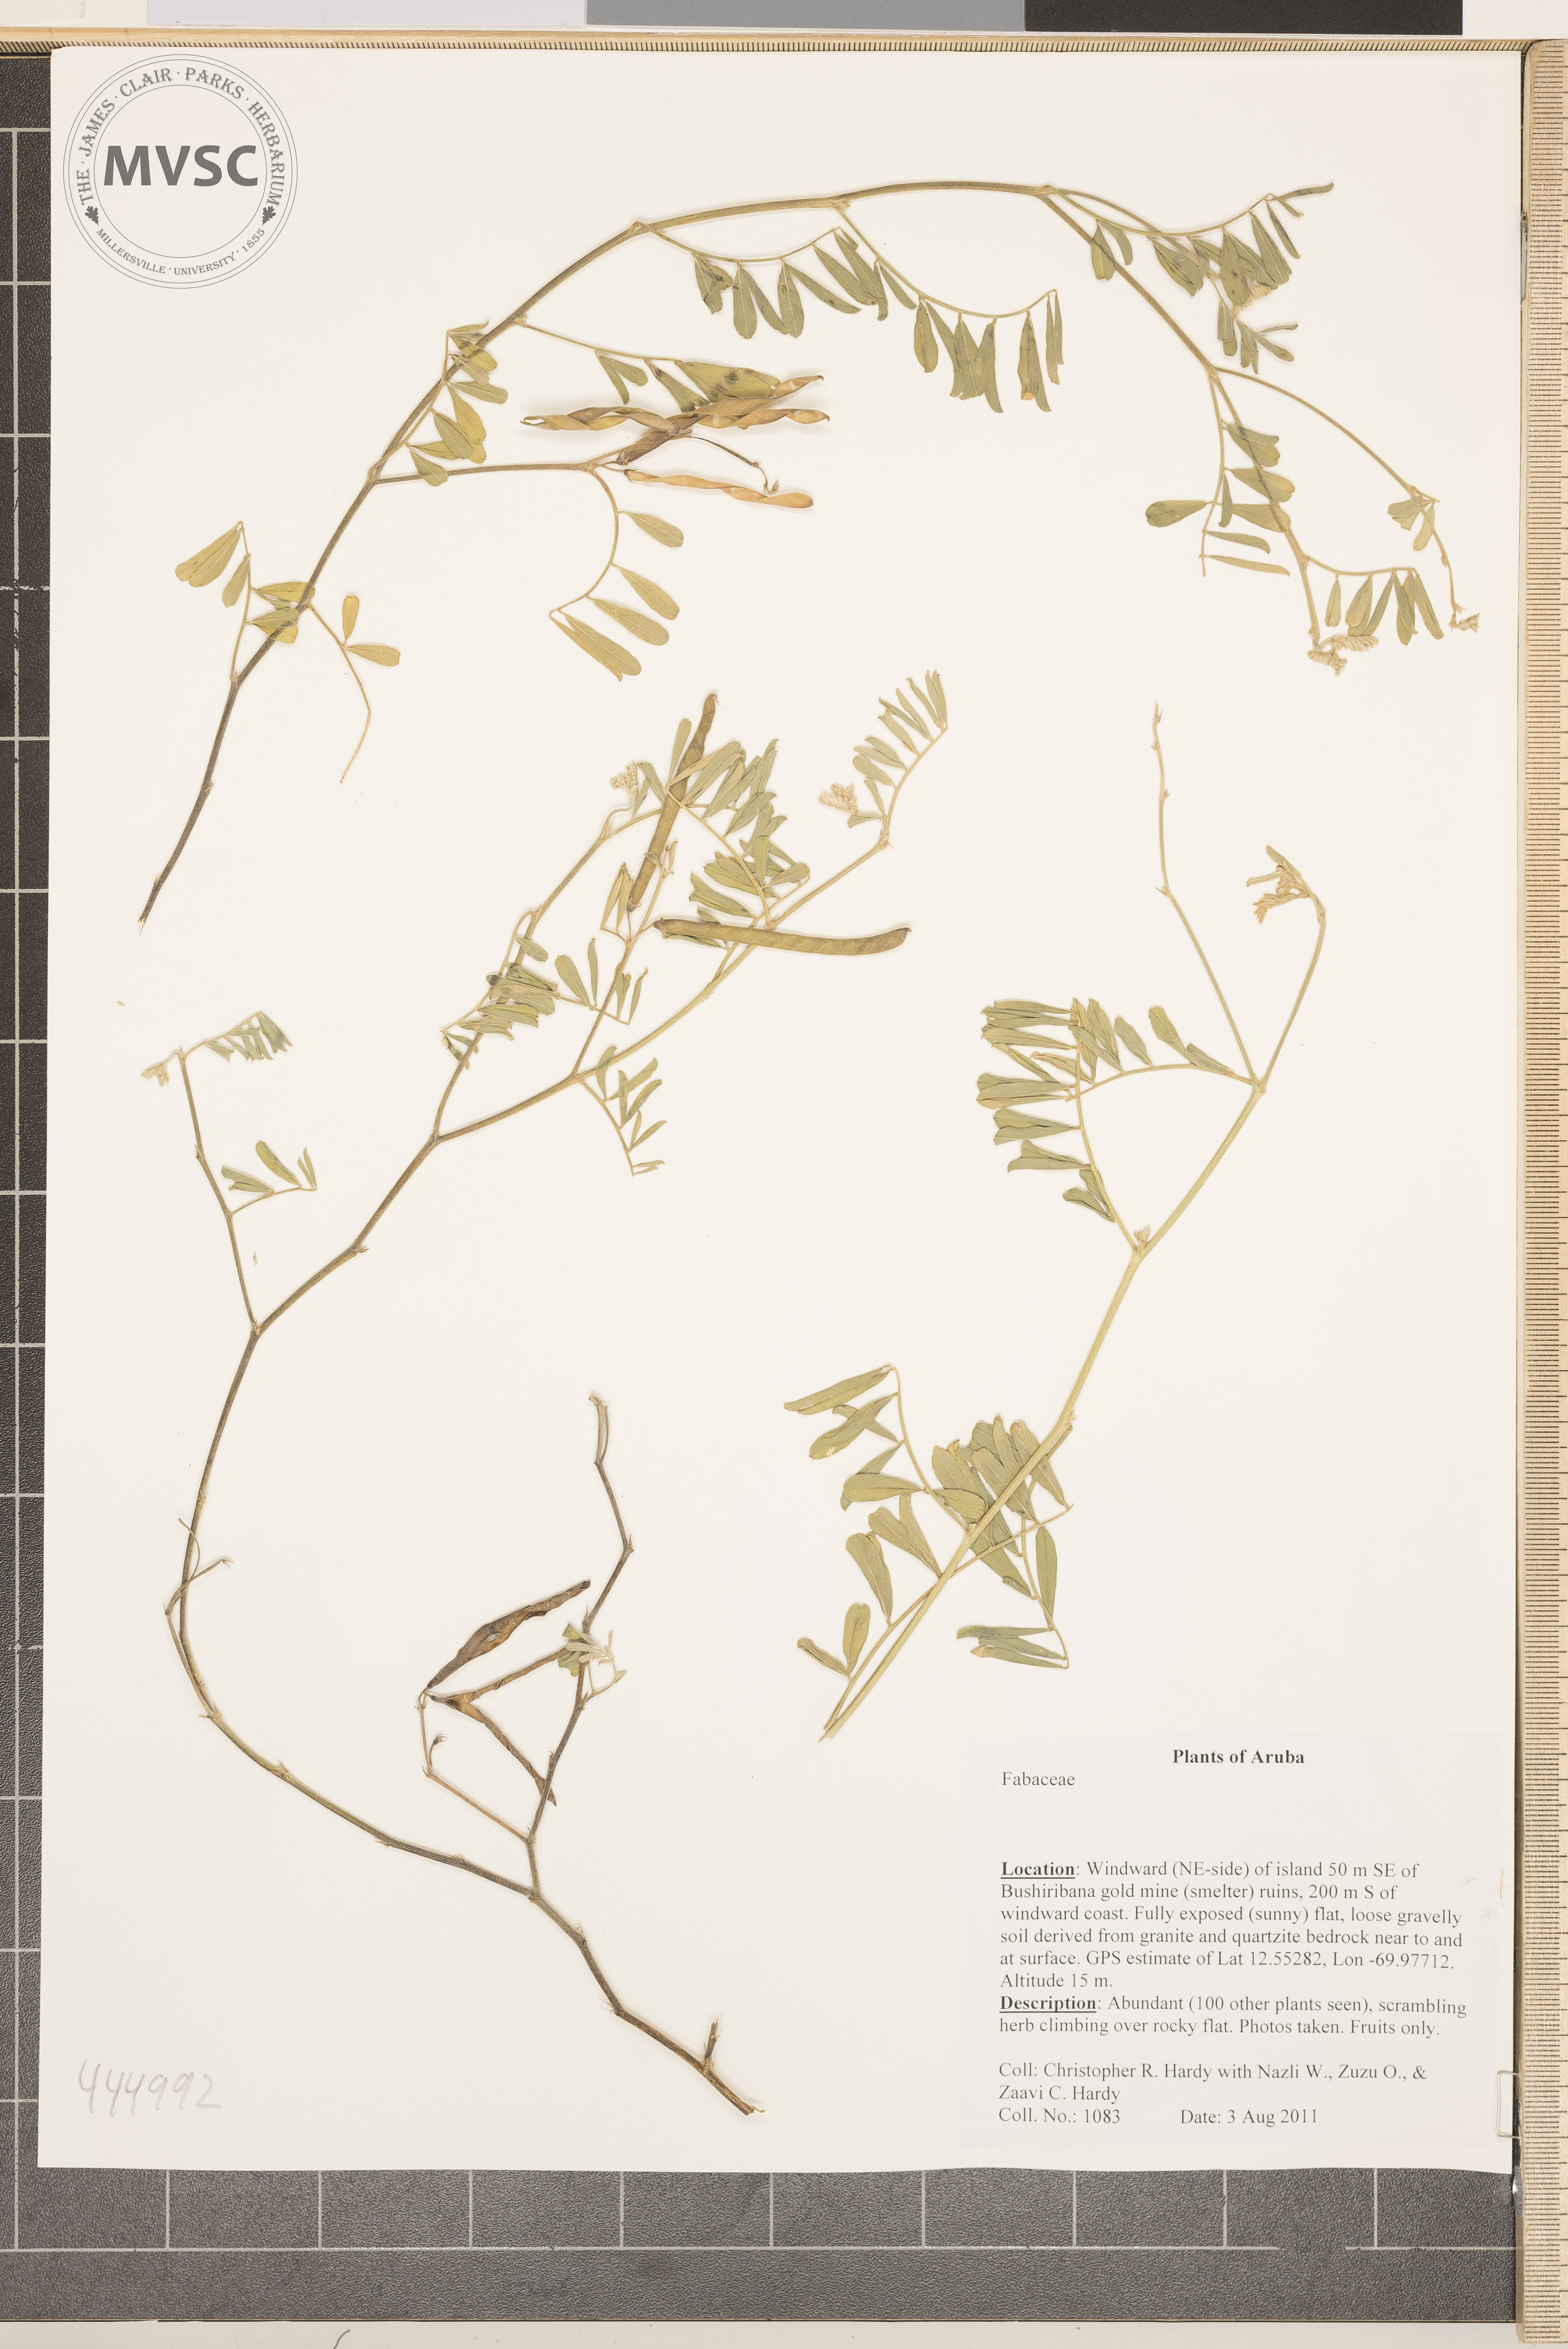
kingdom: Plantae
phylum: Tracheophyta
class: Magnoliopsida
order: Fabales
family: Fabaceae
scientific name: Fabaceae
